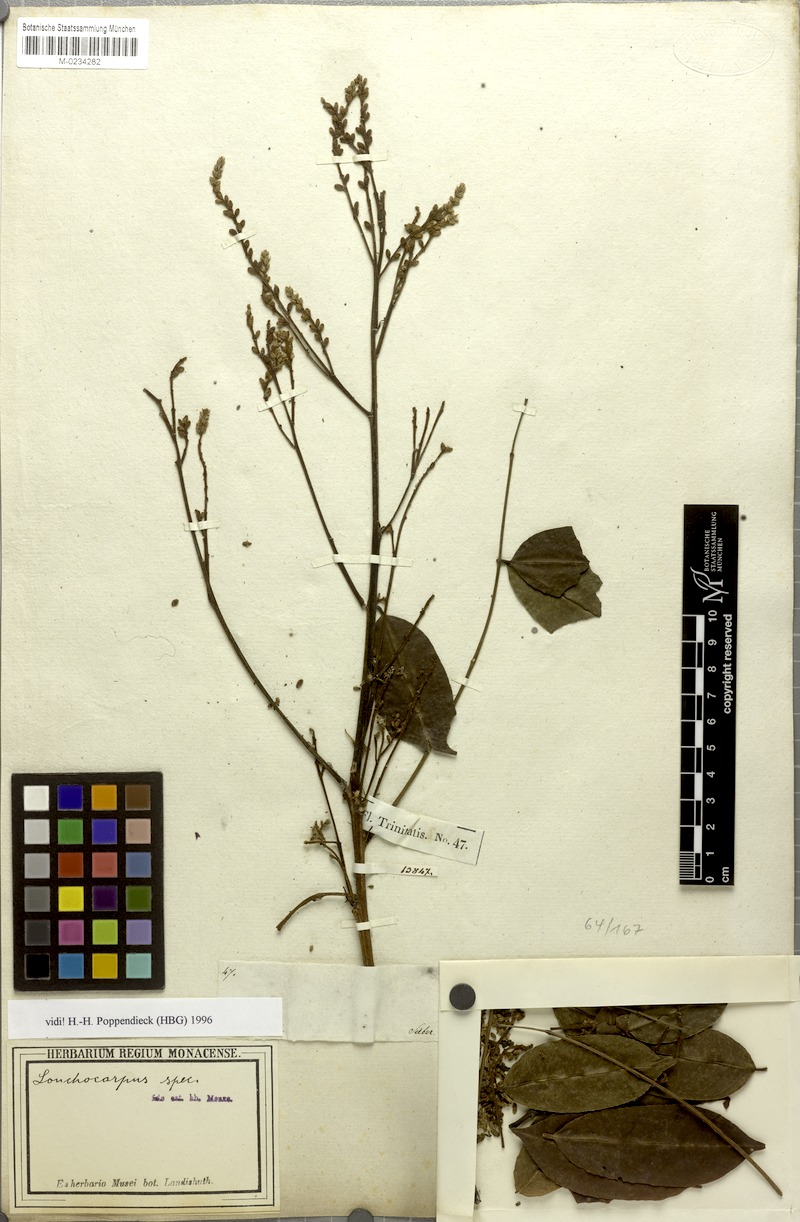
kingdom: Plantae
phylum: Tracheophyta
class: Magnoliopsida
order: Fabales
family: Fabaceae
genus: Lonchocarpus
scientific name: Lonchocarpus
